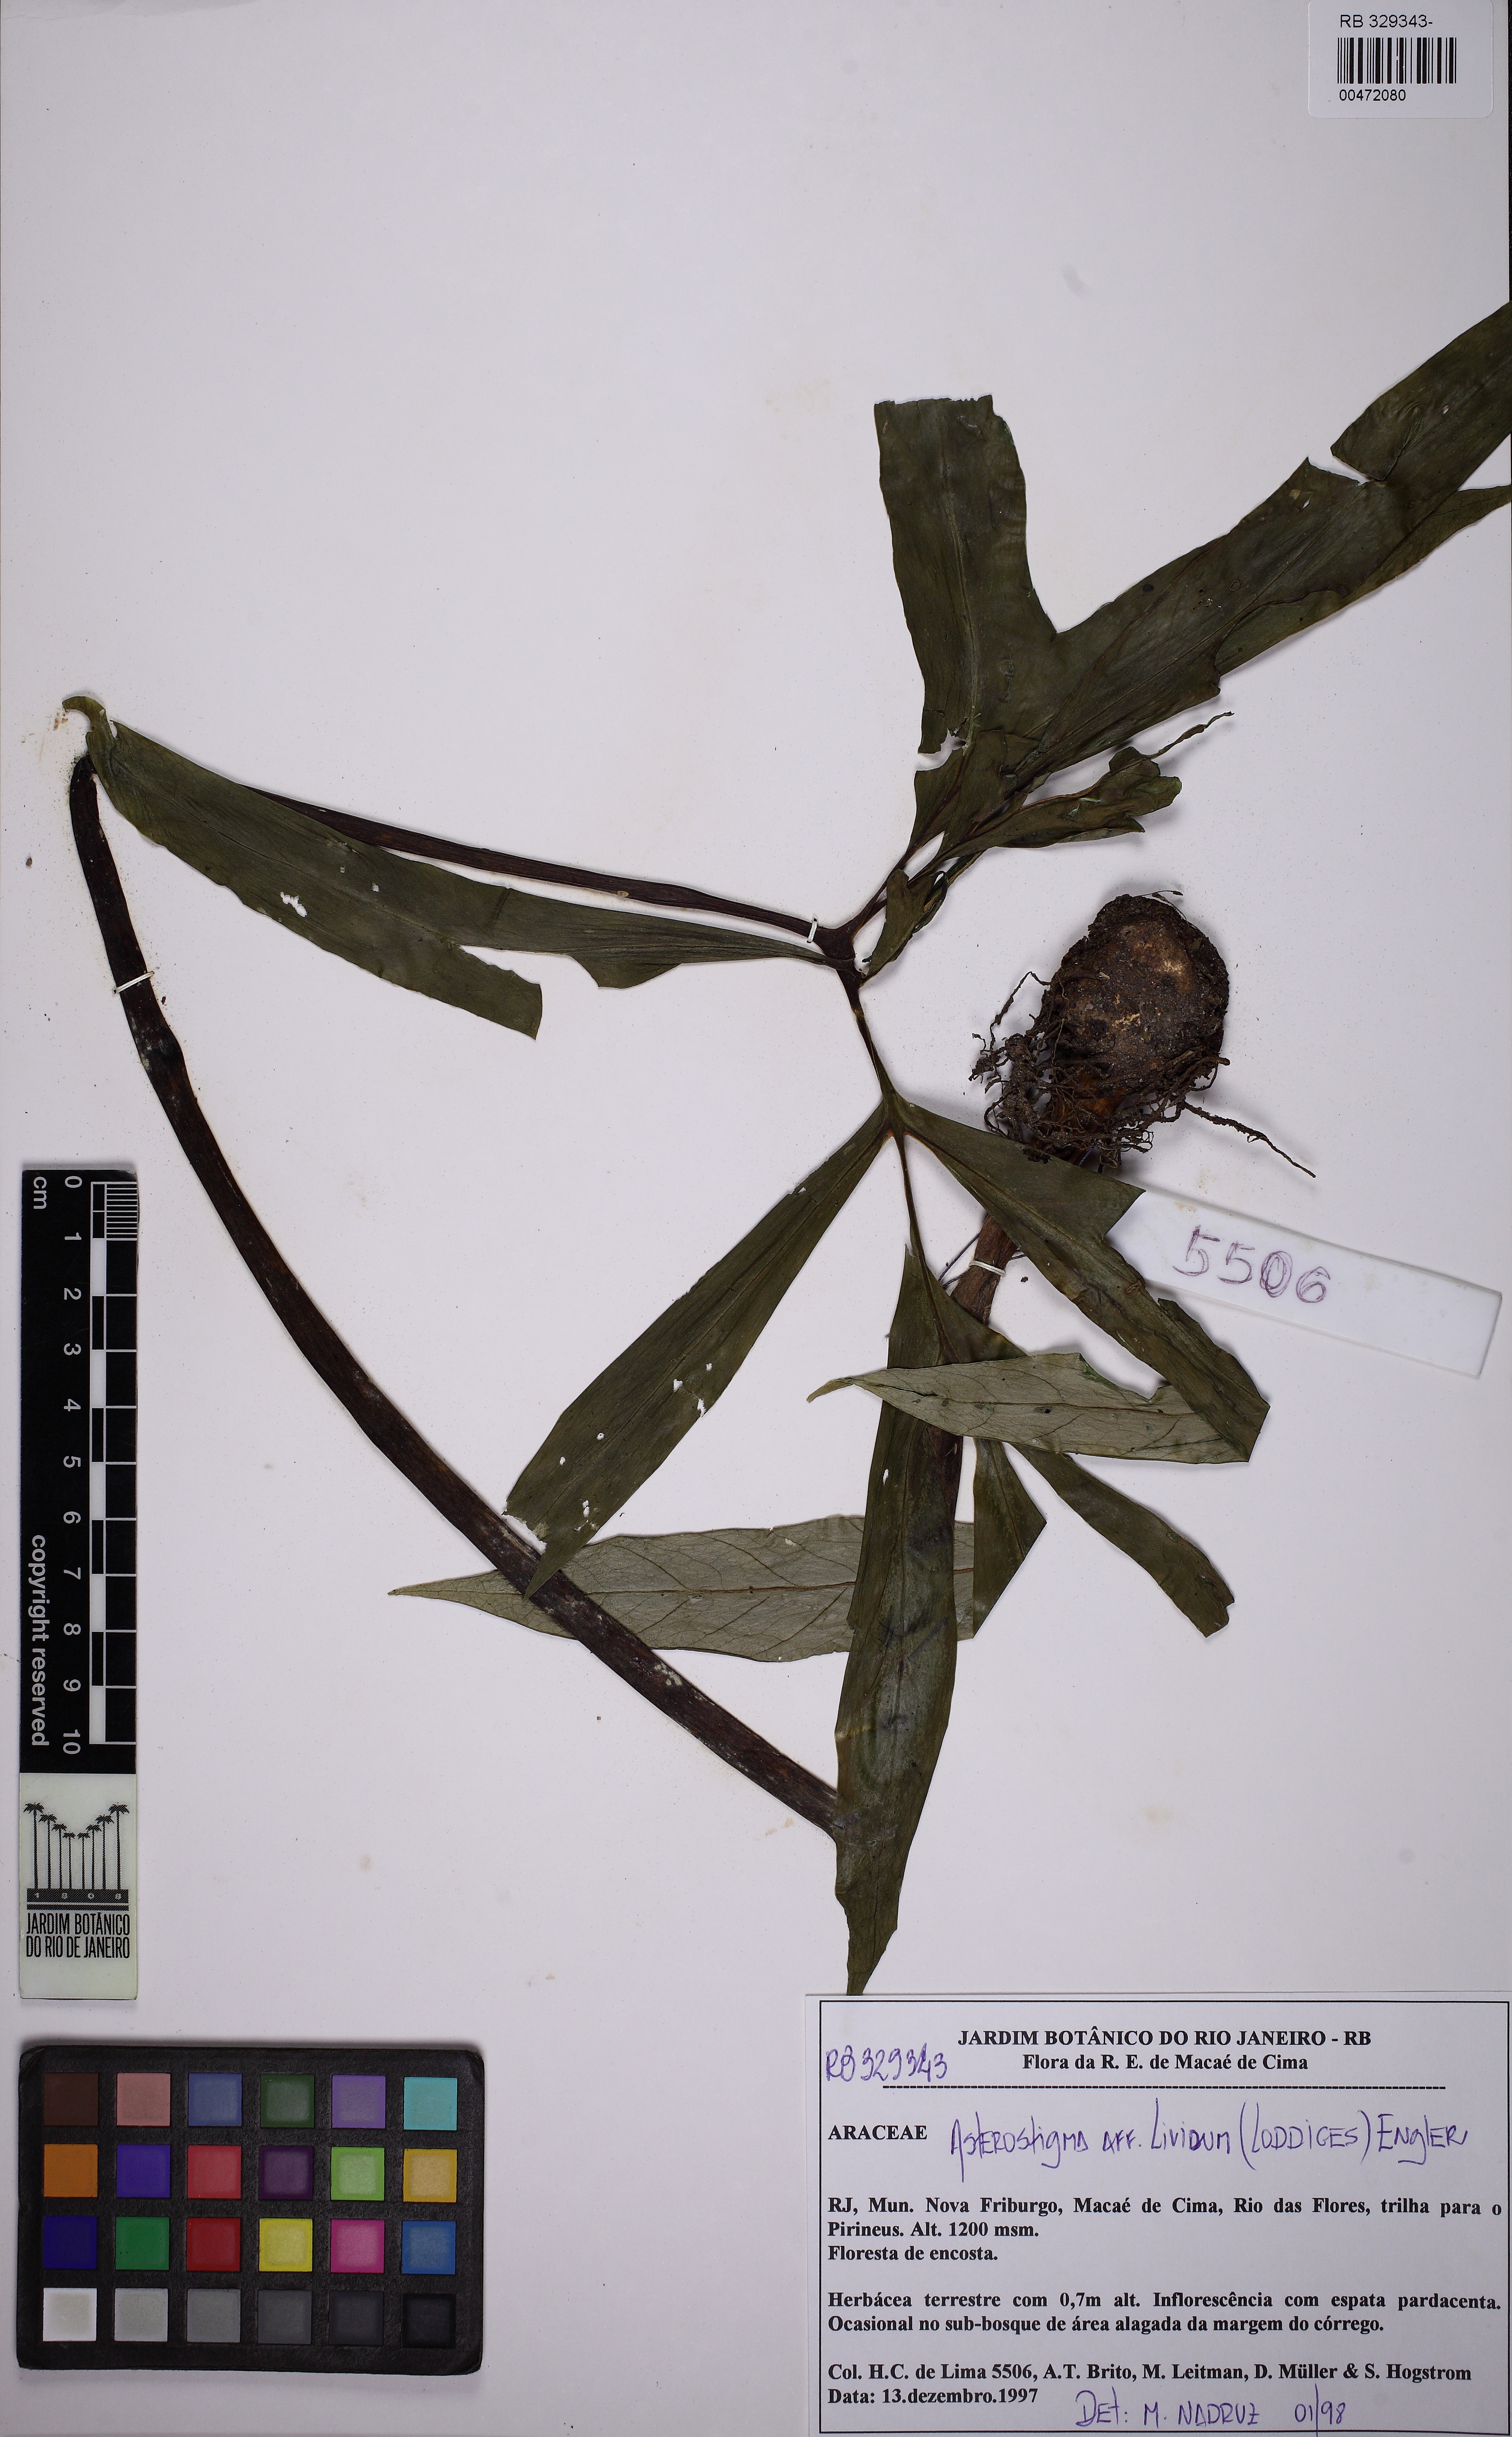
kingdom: Plantae
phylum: Tracheophyta
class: Liliopsida
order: Alismatales
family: Araceae
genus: Asterostigma
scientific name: Asterostigma luridum
